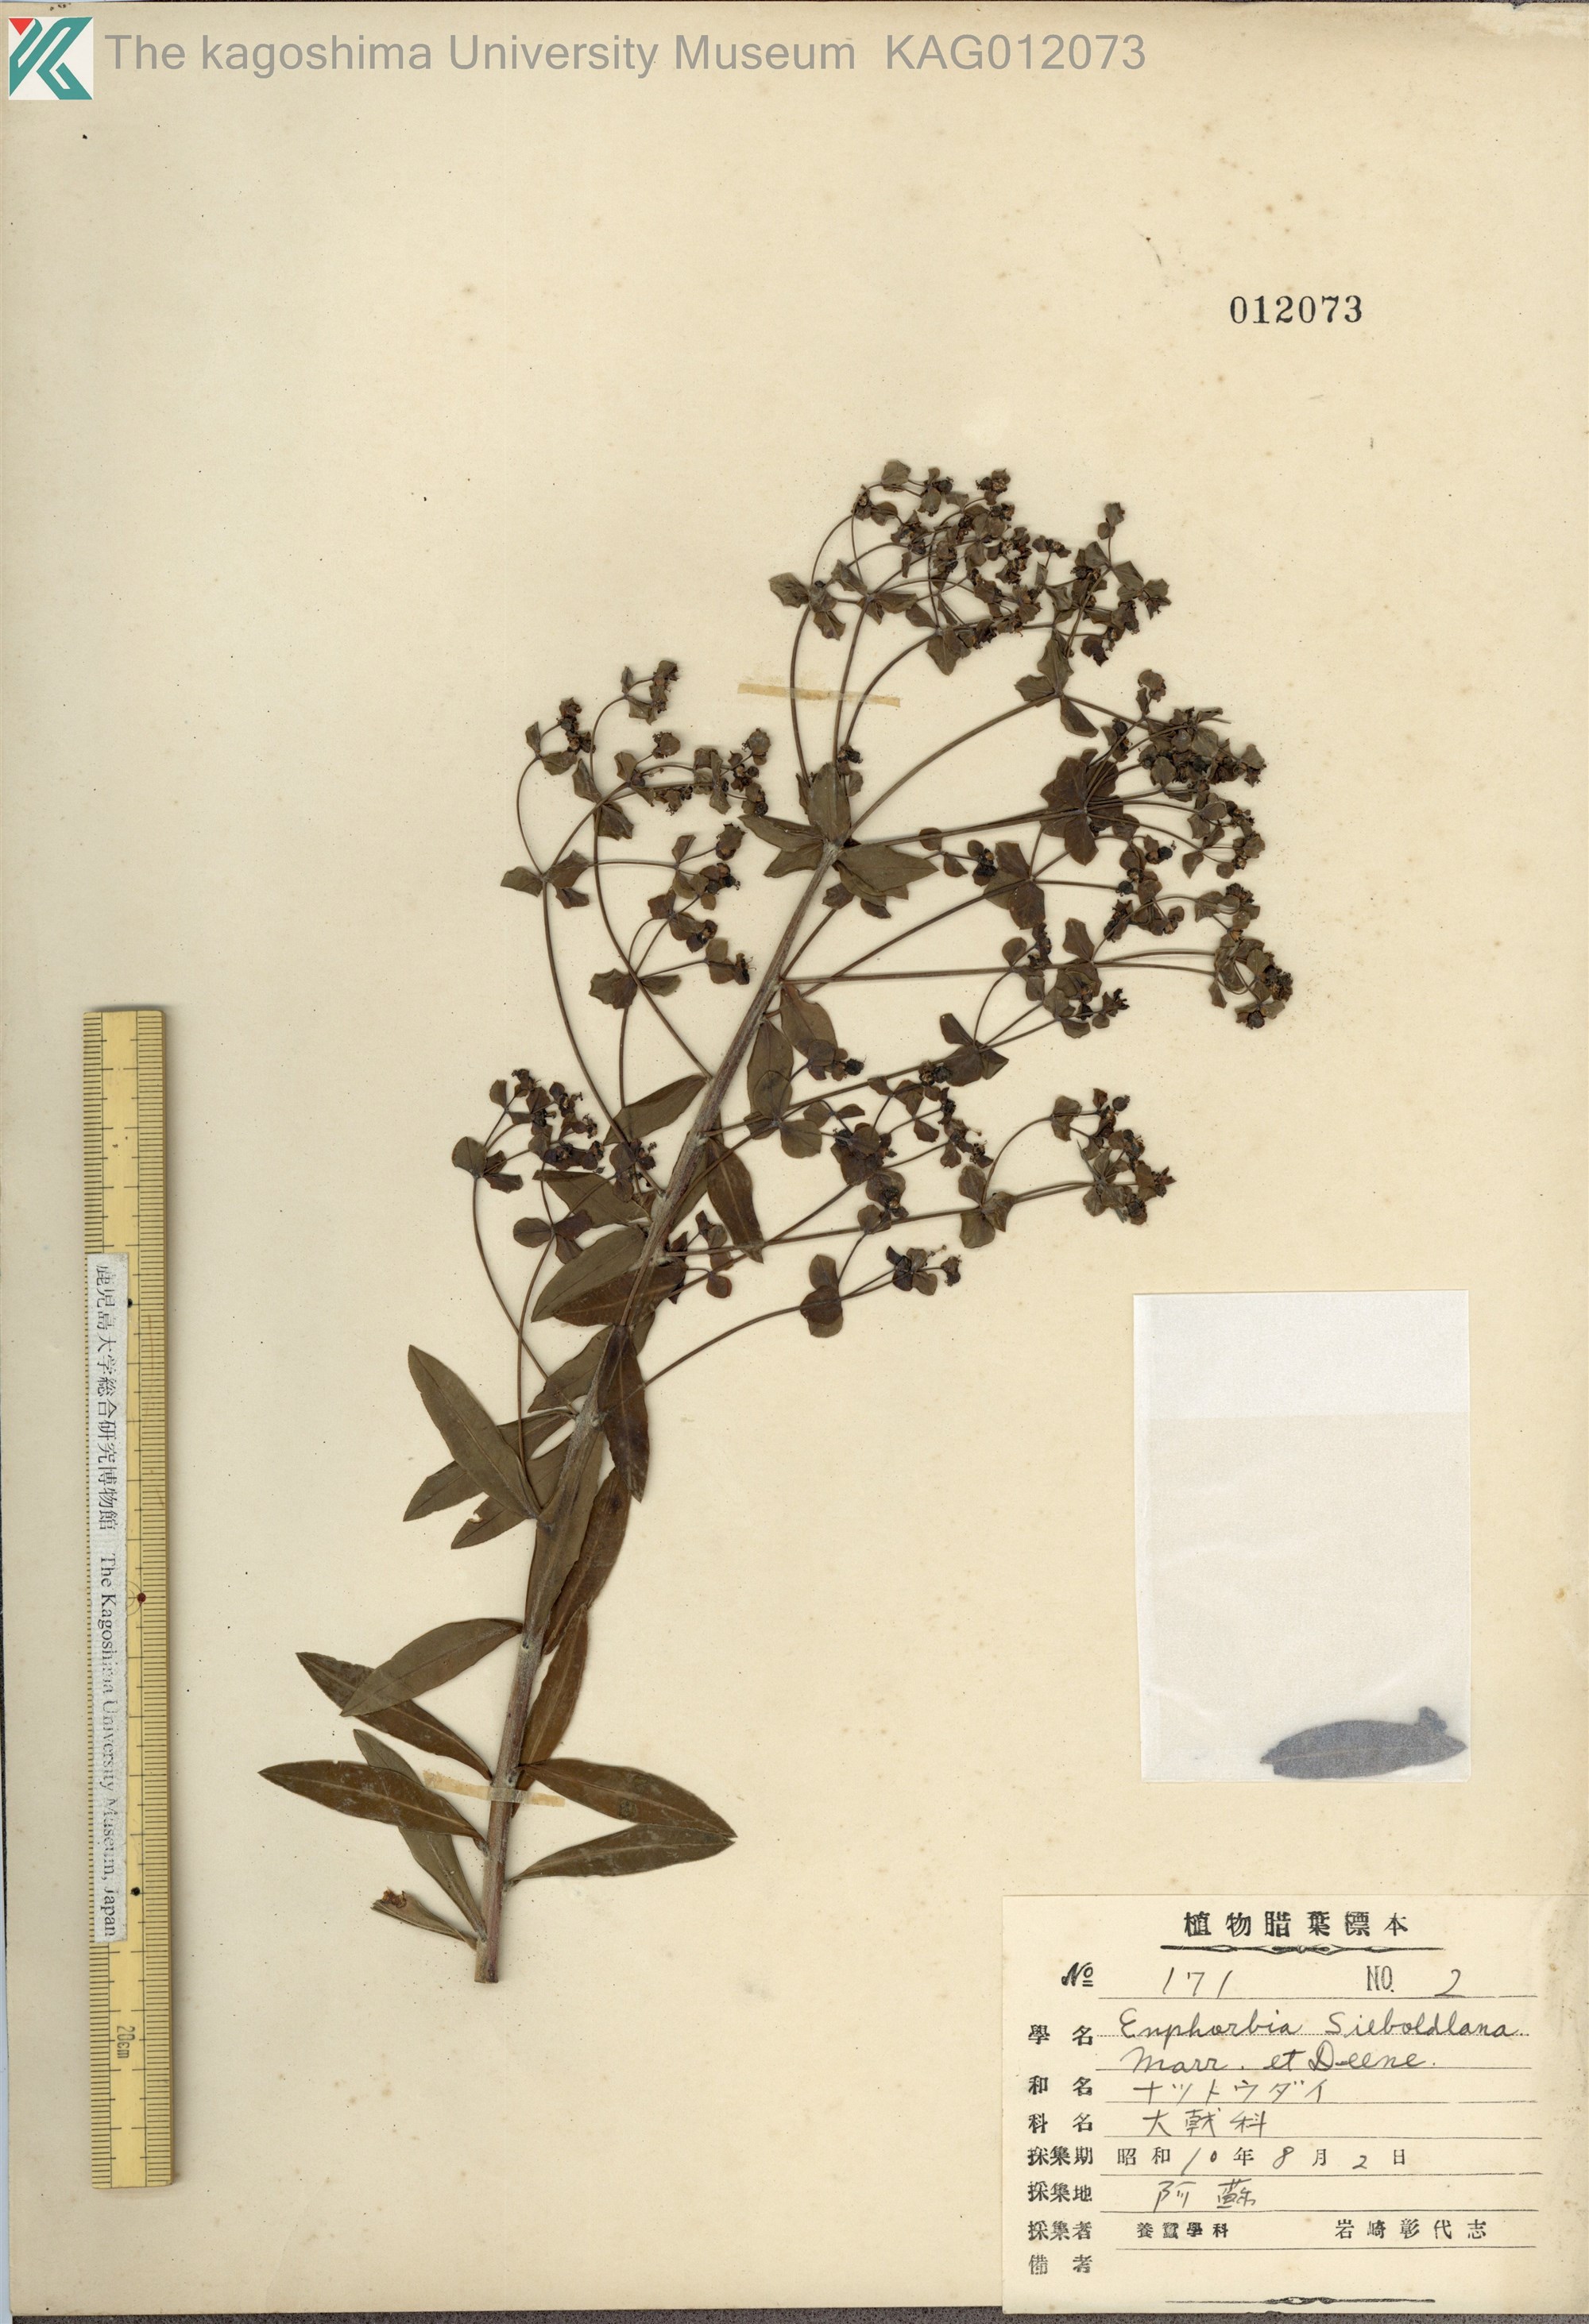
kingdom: Plantae
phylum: Tracheophyta
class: Magnoliopsida
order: Malpighiales
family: Euphorbiaceae
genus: Euphorbia
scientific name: Euphorbia pekinensis
